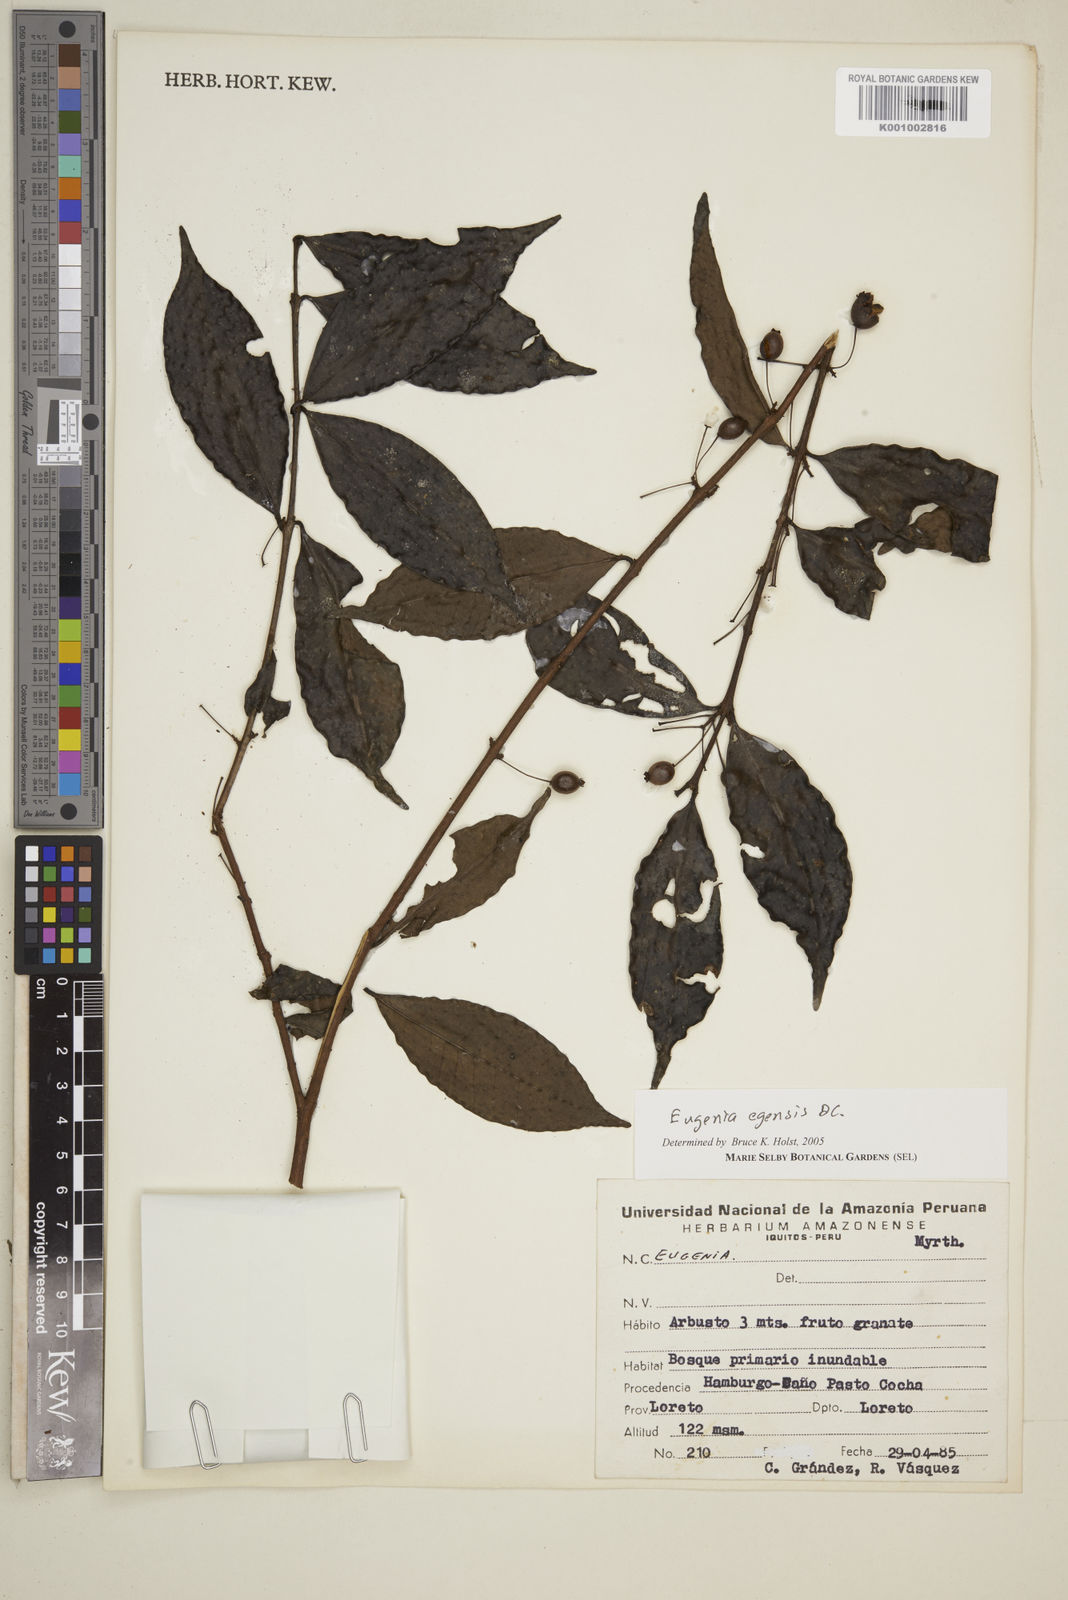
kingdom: Plantae
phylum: Tracheophyta
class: Magnoliopsida
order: Myrtales
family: Myrtaceae
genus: Eugenia
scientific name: Eugenia egensis
